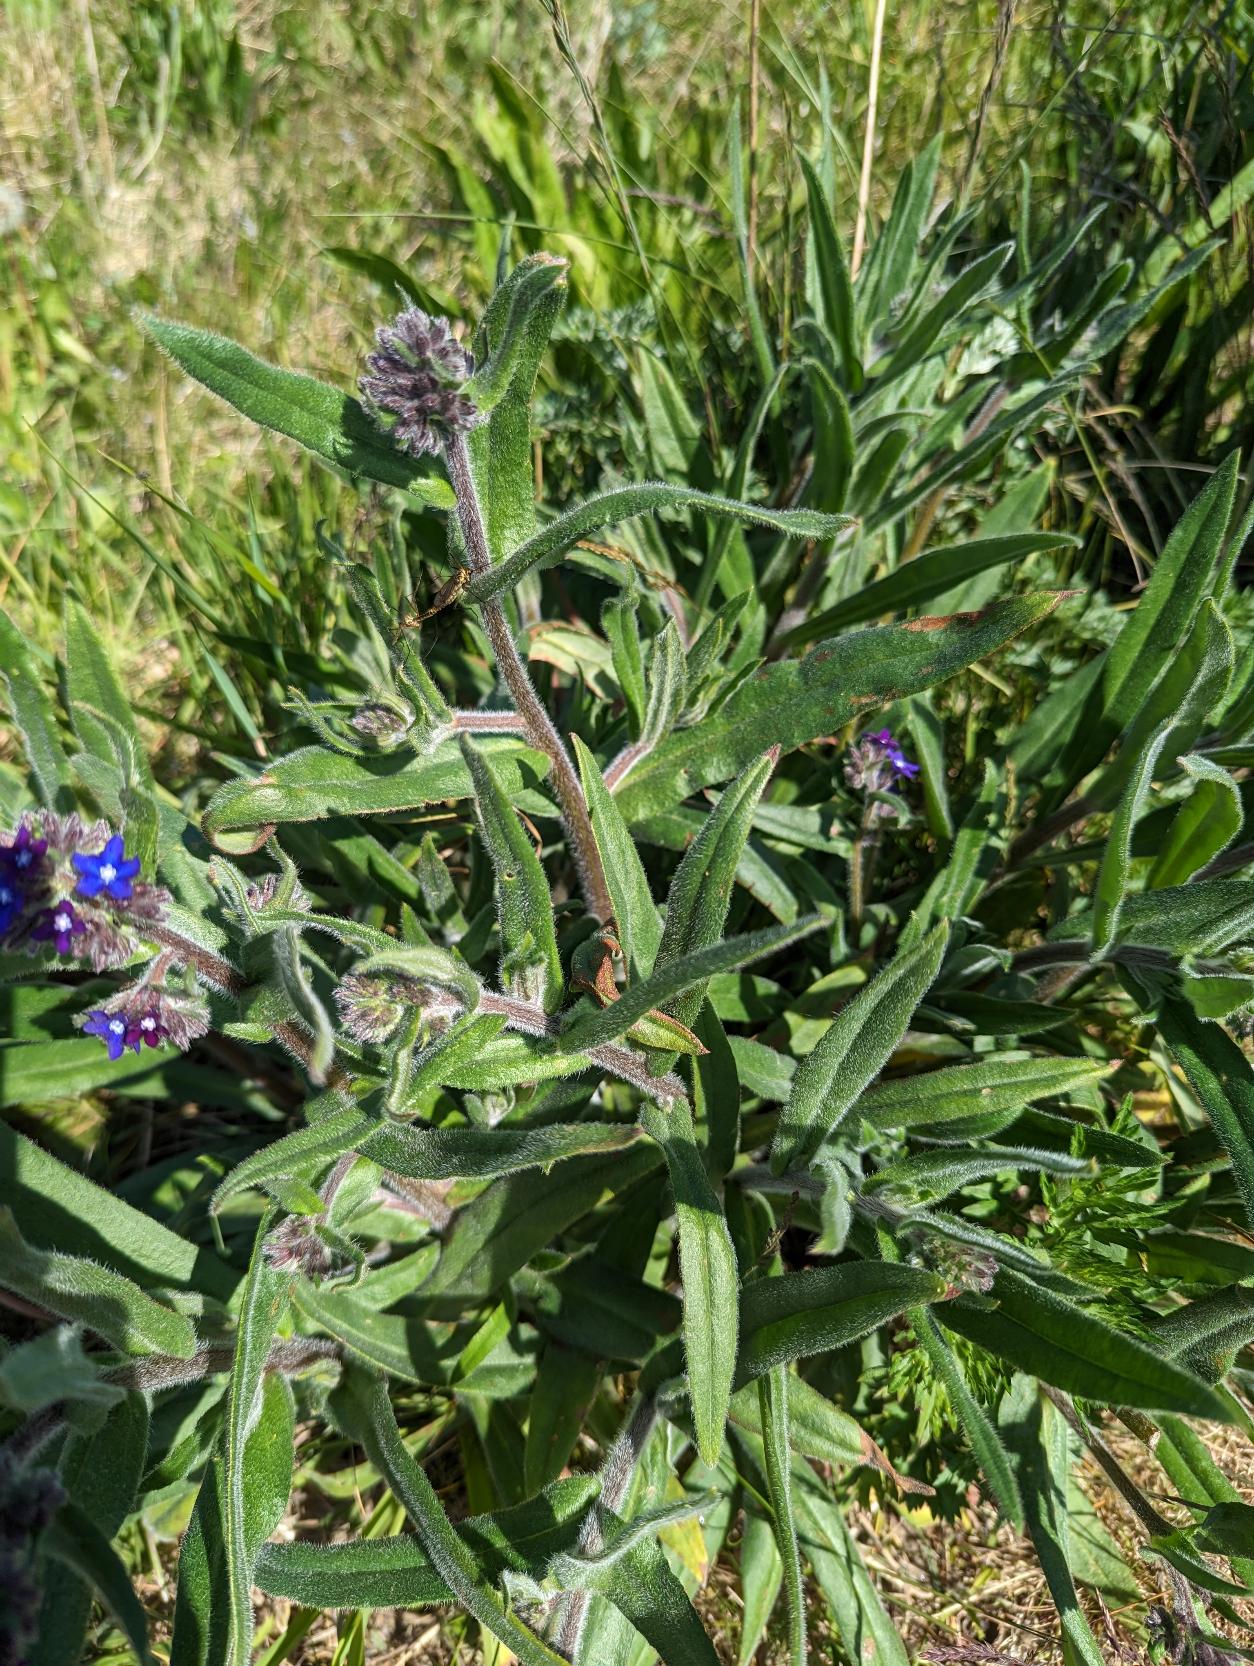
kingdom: Plantae
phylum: Tracheophyta
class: Magnoliopsida
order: Boraginales
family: Boraginaceae
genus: Anchusa
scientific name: Anchusa officinalis
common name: Læge-oksetunge
